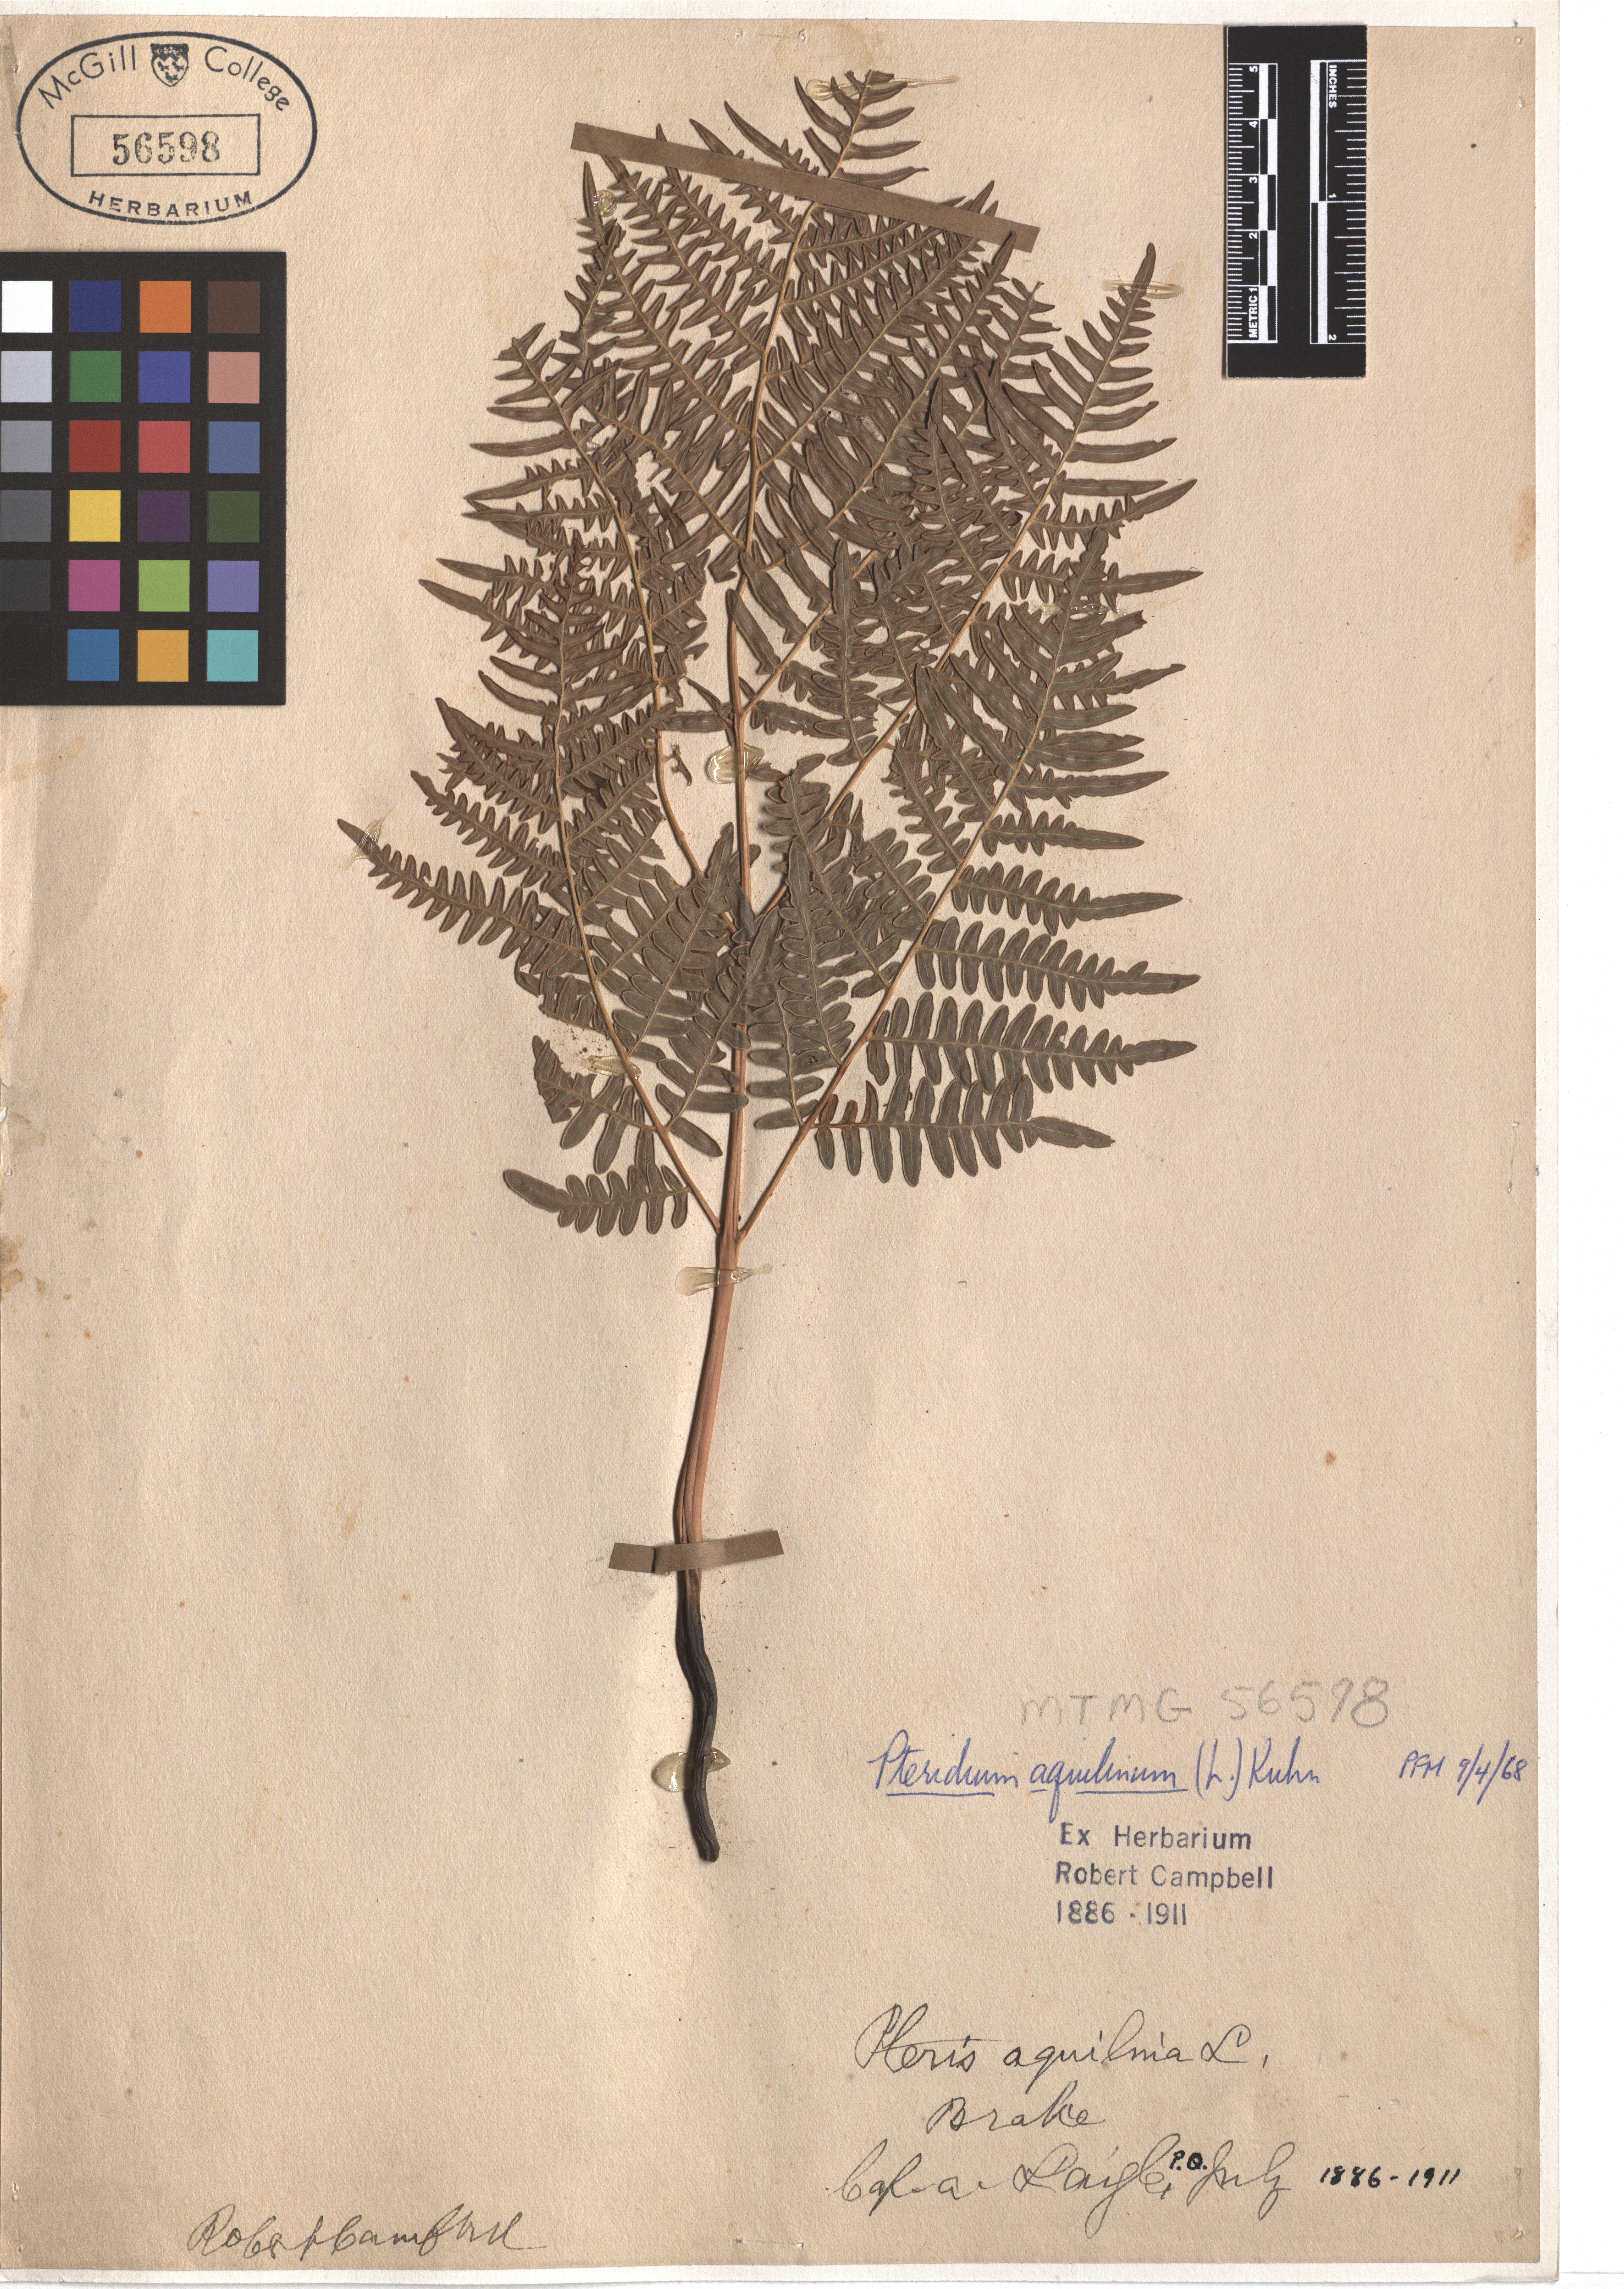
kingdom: Plantae
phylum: Tracheophyta
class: Polypodiopsida
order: Polypodiales
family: Dennstaedtiaceae
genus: Pteridium
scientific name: Pteridium aquilinum
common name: Bracken
